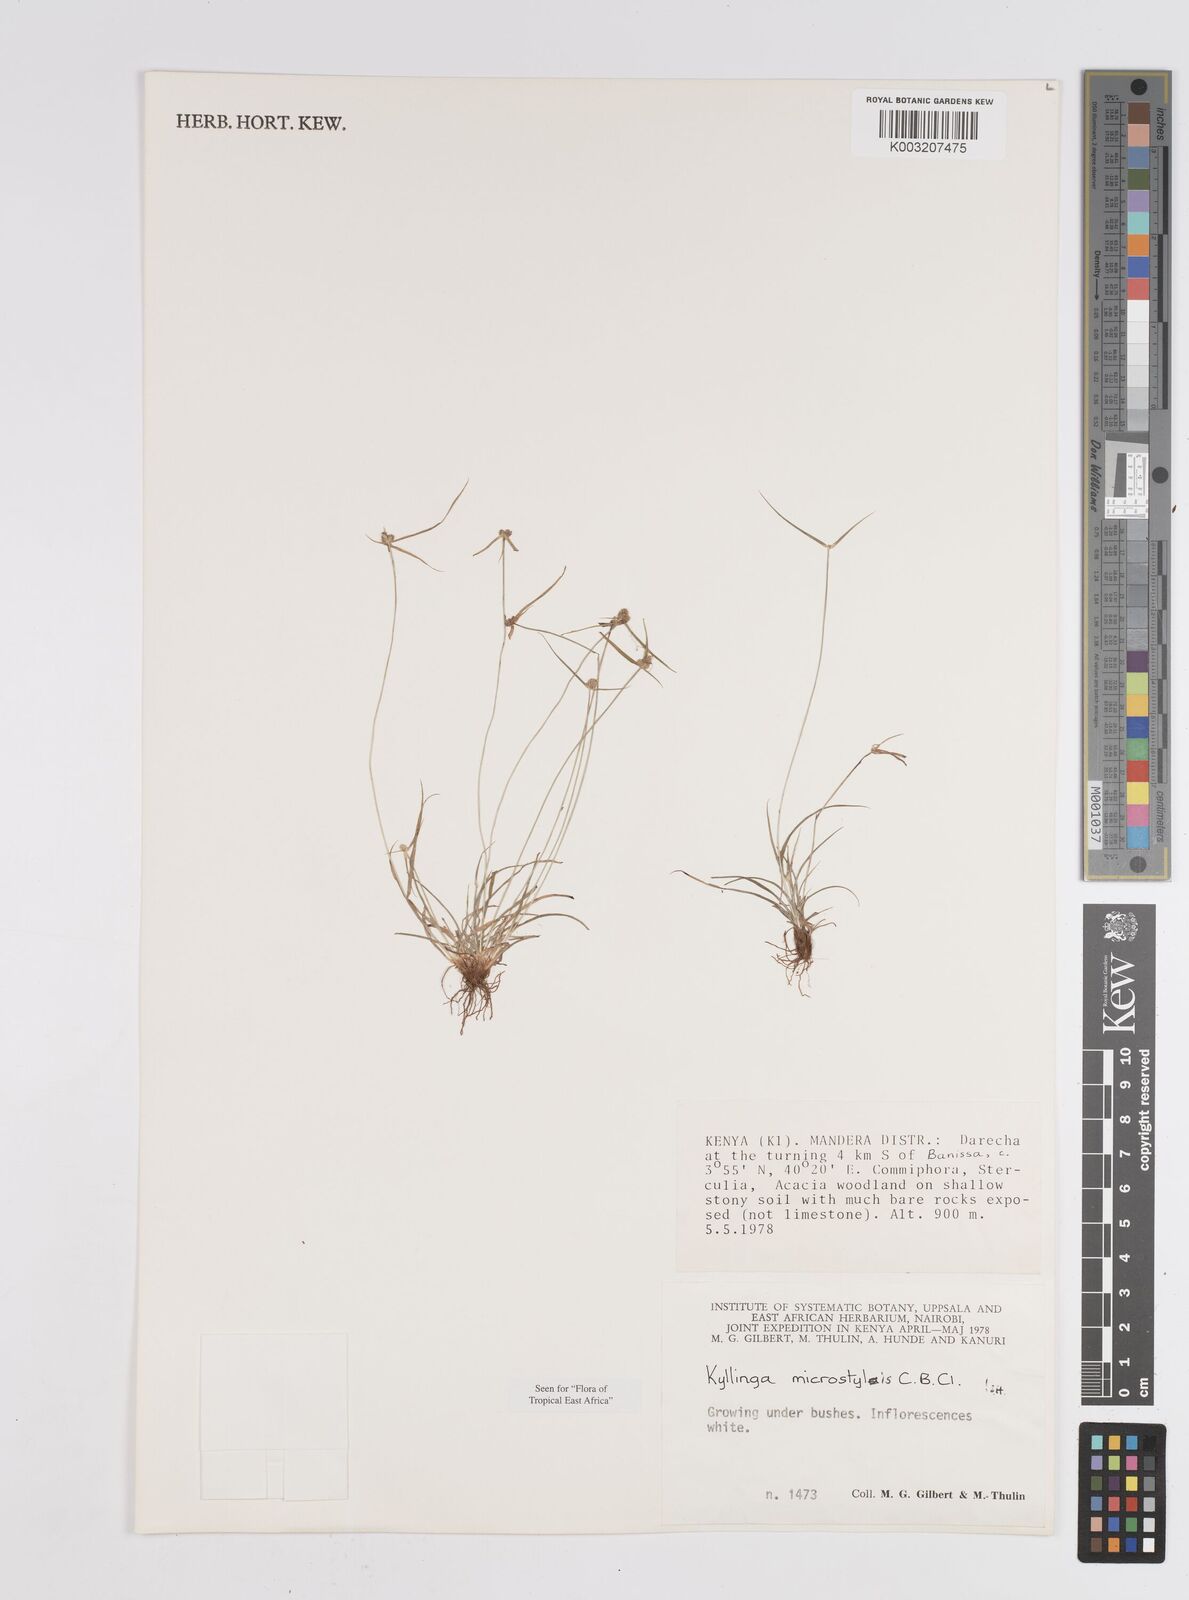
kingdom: Plantae
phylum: Tracheophyta
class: Liliopsida
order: Poales
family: Cyperaceae
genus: Cyperus
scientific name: Cyperus microstylus
